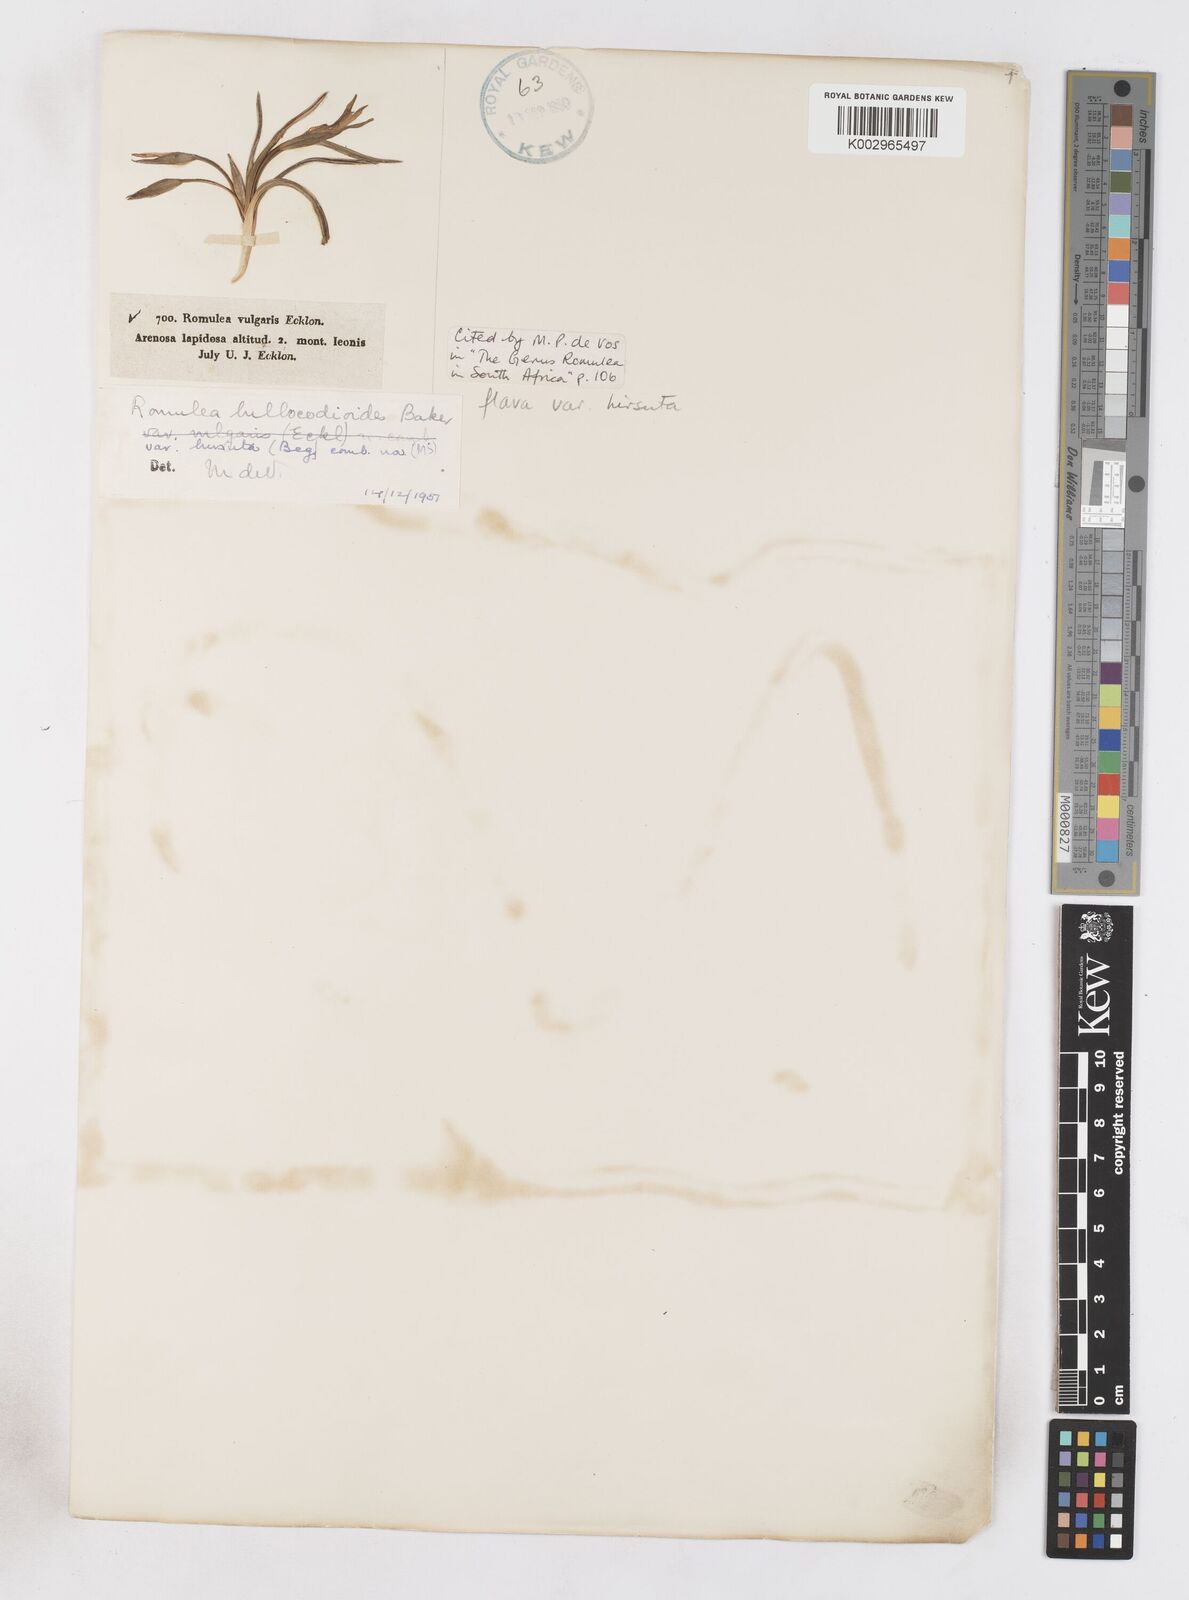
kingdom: Plantae
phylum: Tracheophyta
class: Liliopsida
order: Asparagales
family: Iridaceae
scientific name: Iridaceae
